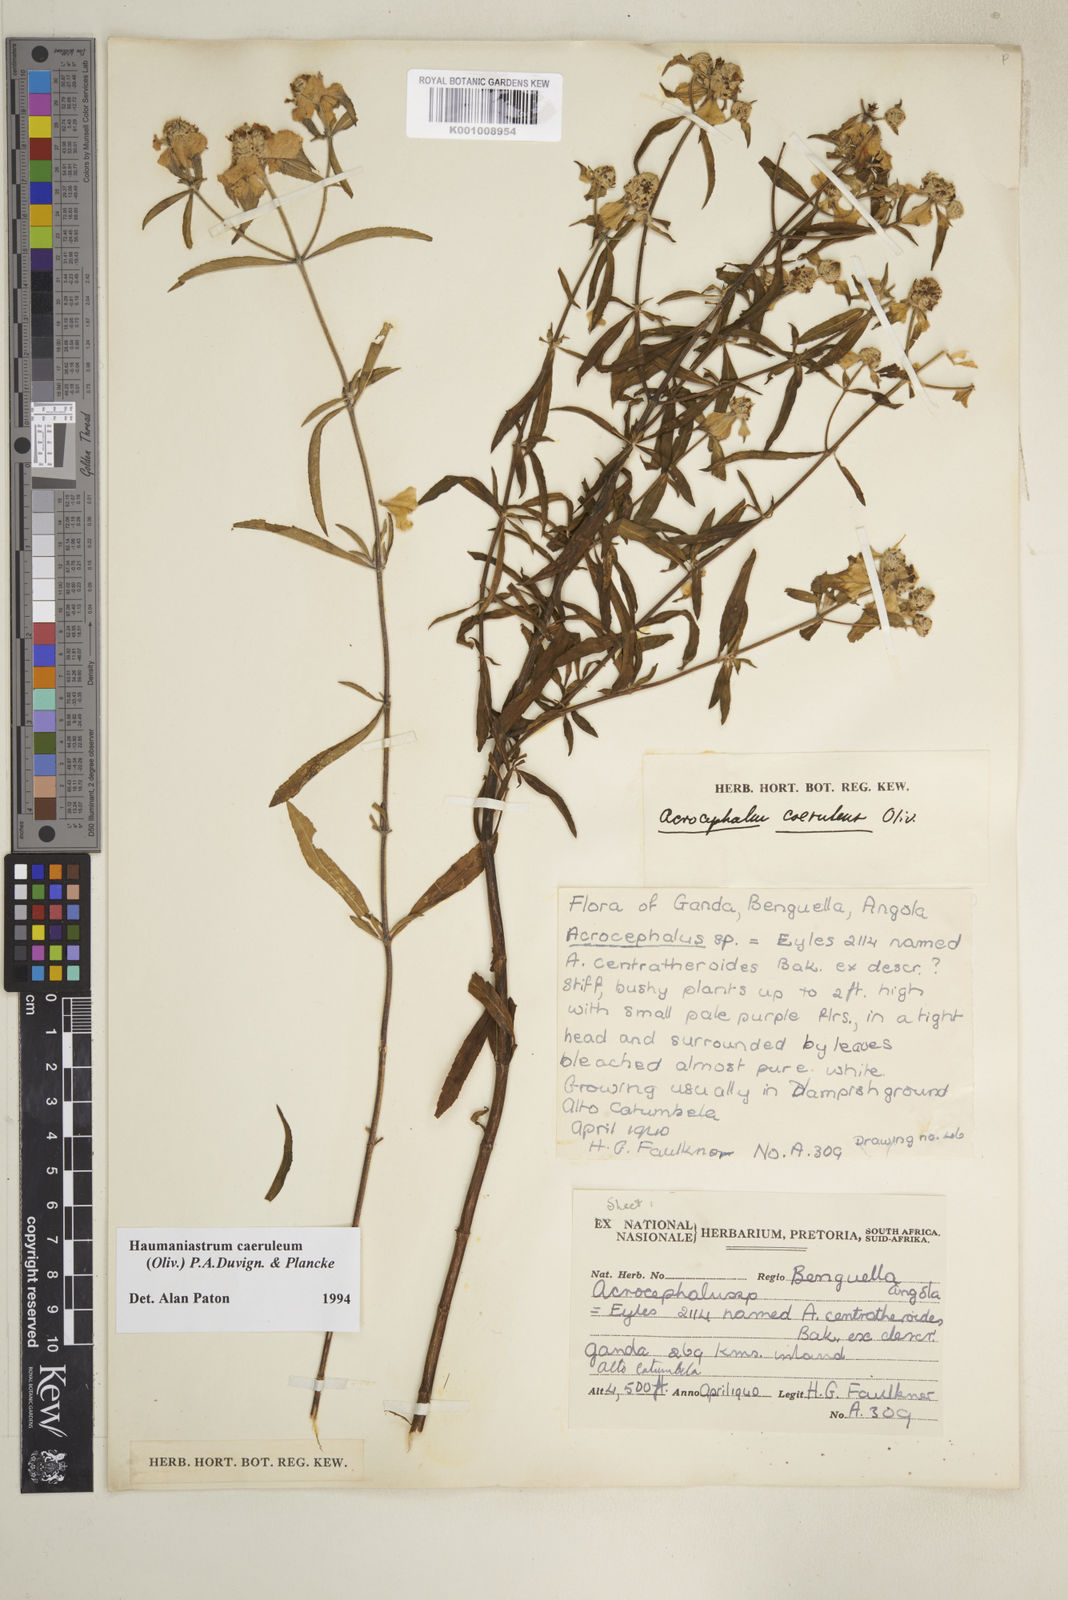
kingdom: Plantae
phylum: Tracheophyta
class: Magnoliopsida
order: Lamiales
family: Lamiaceae
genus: Haumaniastrum
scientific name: Haumaniastrum caeruleum
